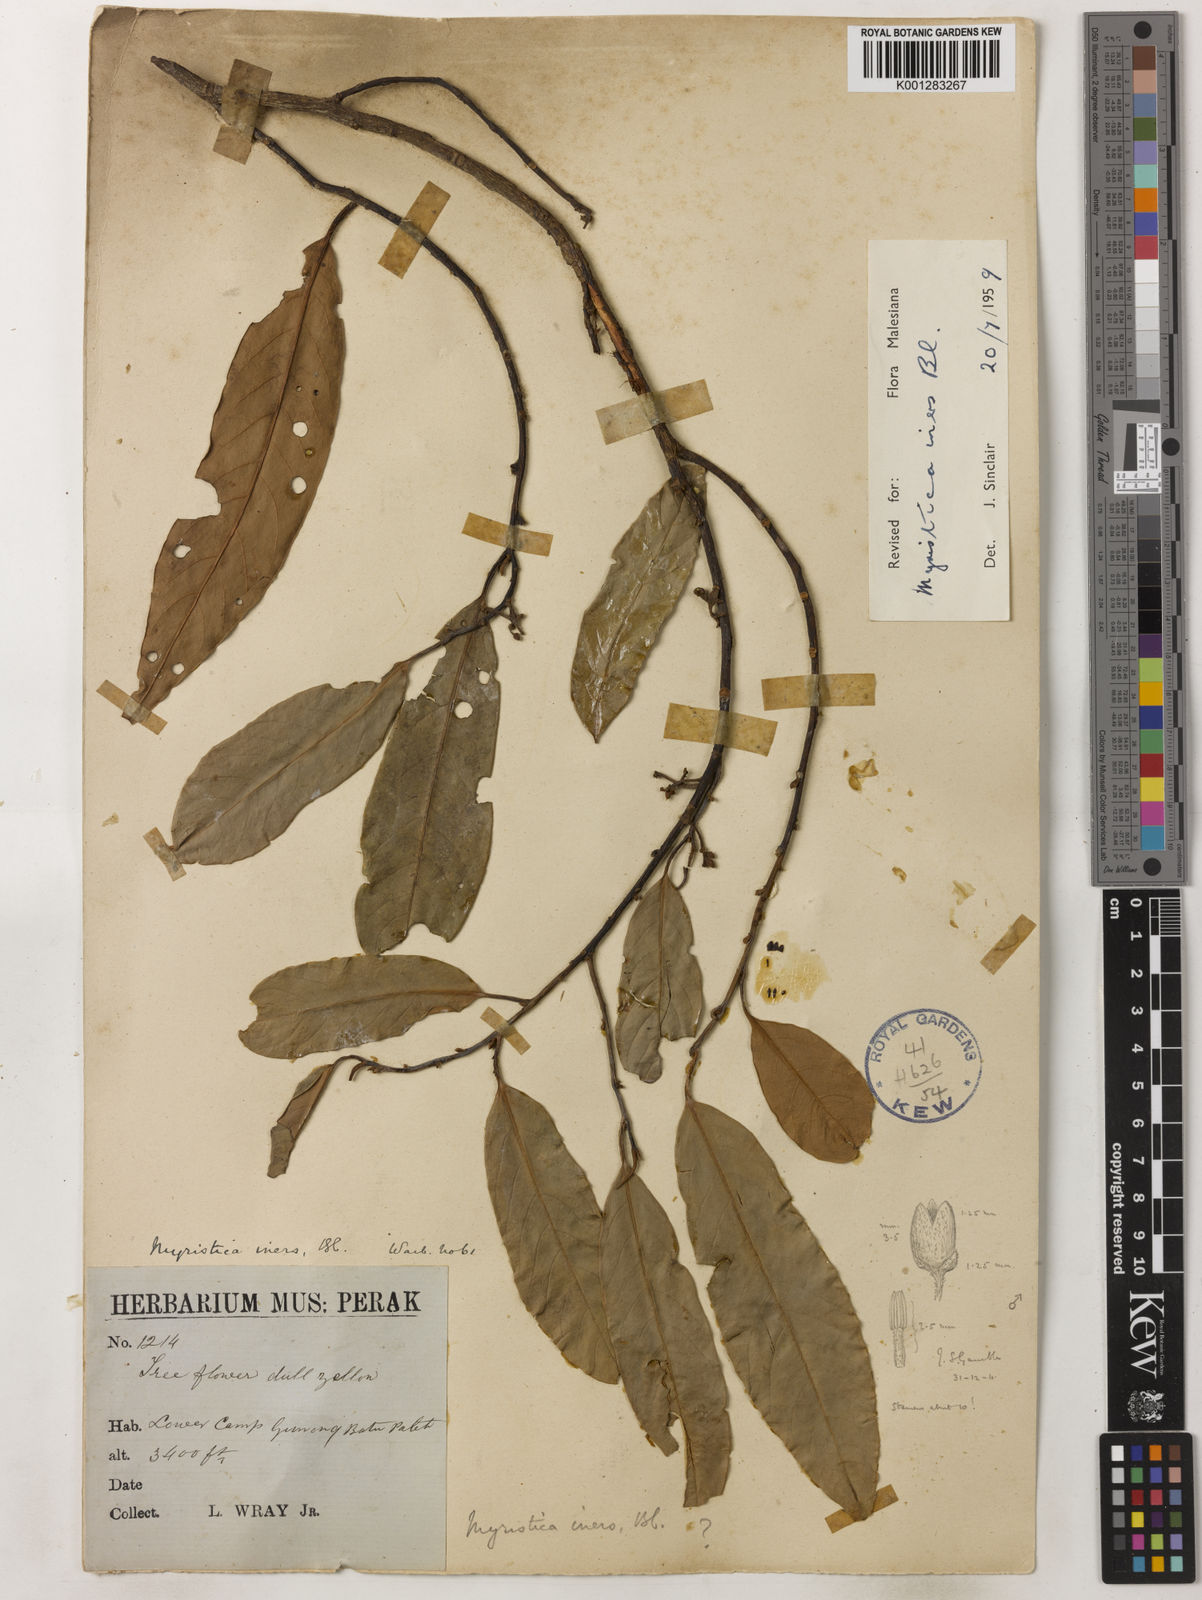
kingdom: Plantae
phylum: Tracheophyta
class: Magnoliopsida
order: Magnoliales
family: Myristicaceae
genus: Myristica
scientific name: Myristica iners
